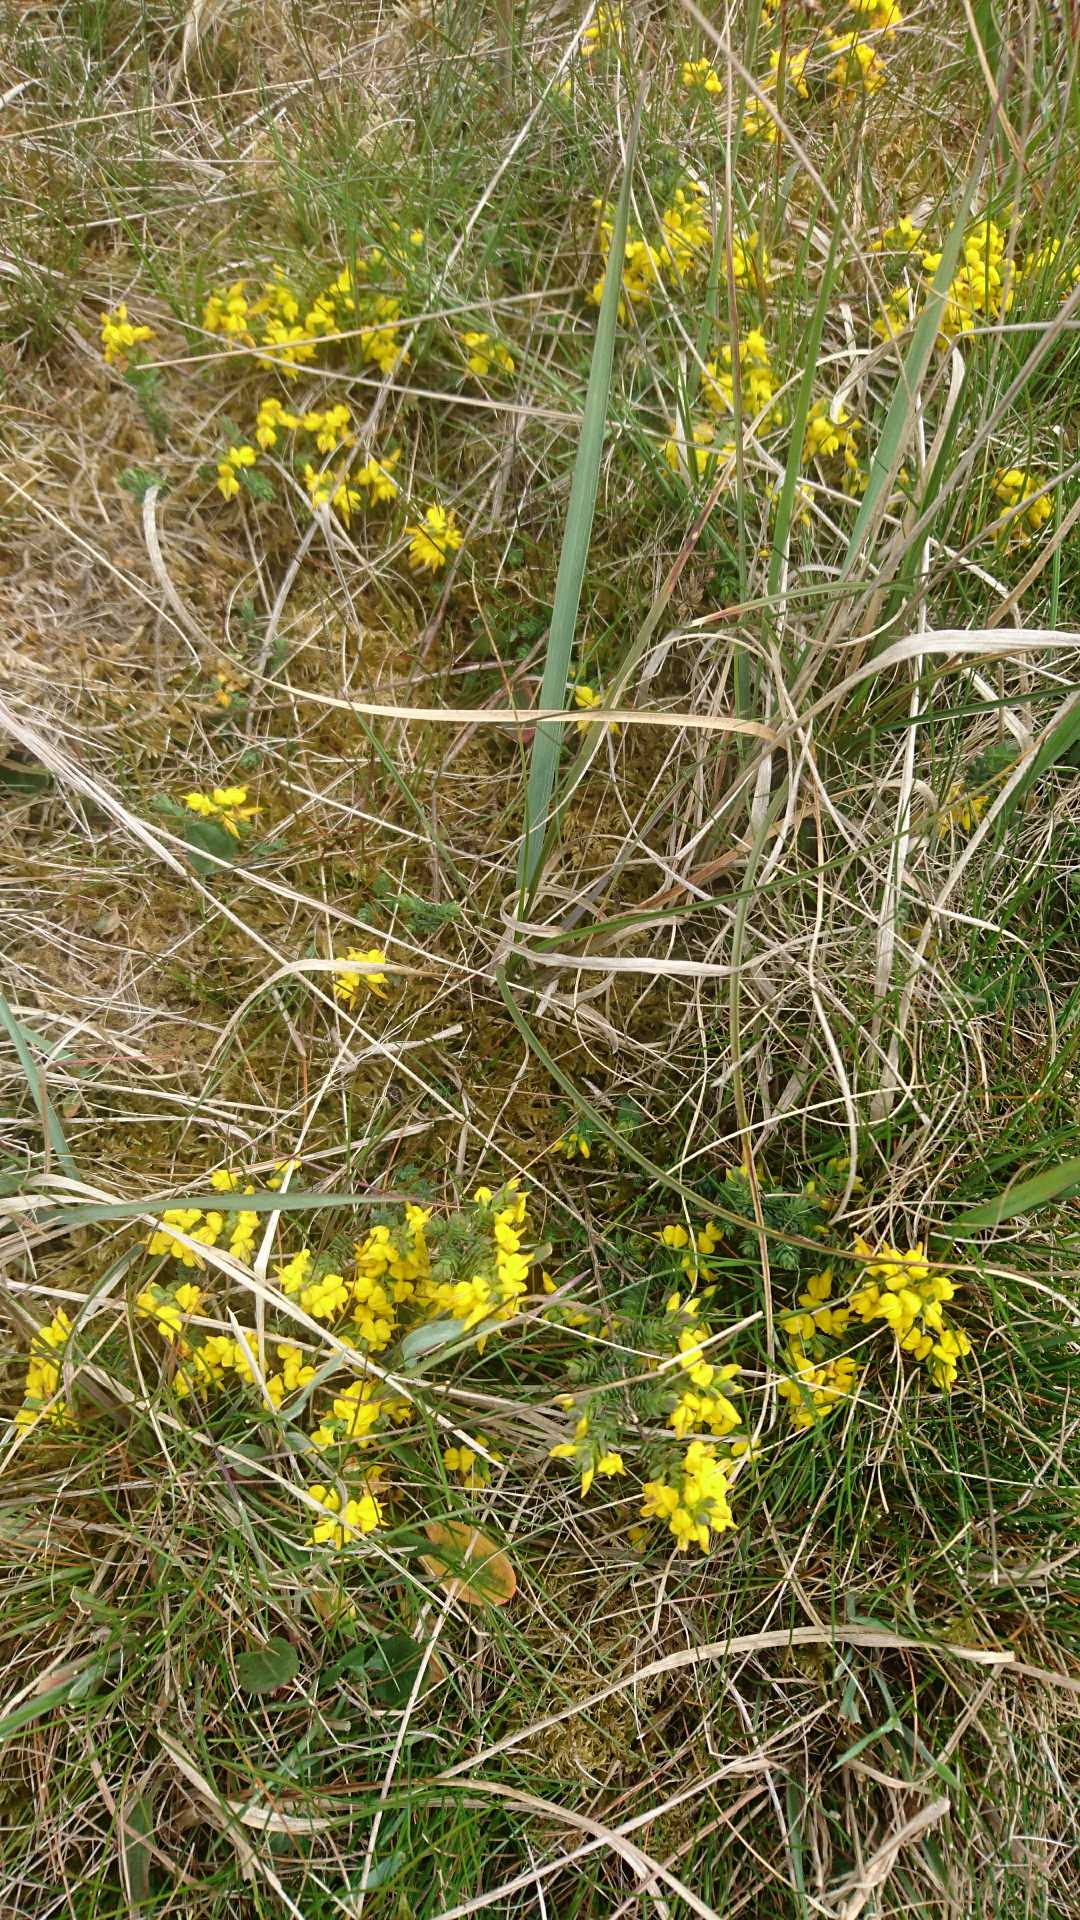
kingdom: Plantae
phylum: Tracheophyta
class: Magnoliopsida
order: Fabales
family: Fabaceae
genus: Genista
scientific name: Genista anglica
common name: Engelsk visse
